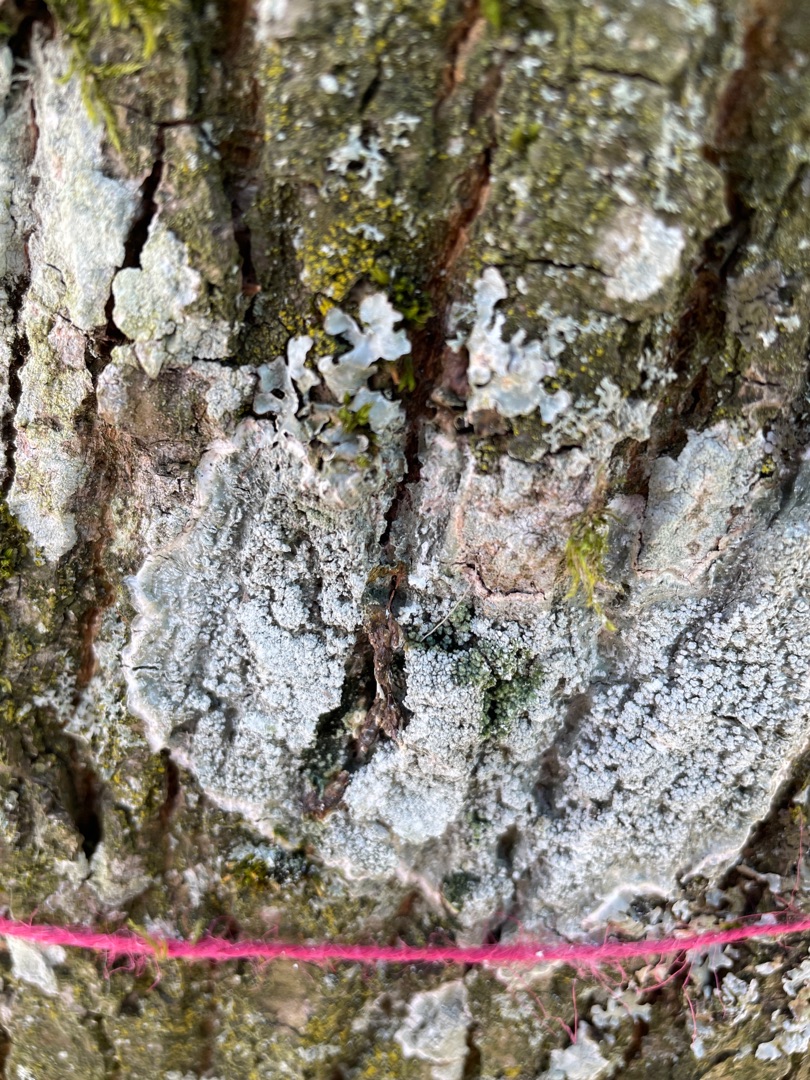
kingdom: Fungi
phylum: Ascomycota
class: Lecanoromycetes
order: Pertusariales
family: Pertusariaceae
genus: Lepra
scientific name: Lepra albescens
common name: Hvidmelet prikvortelav
